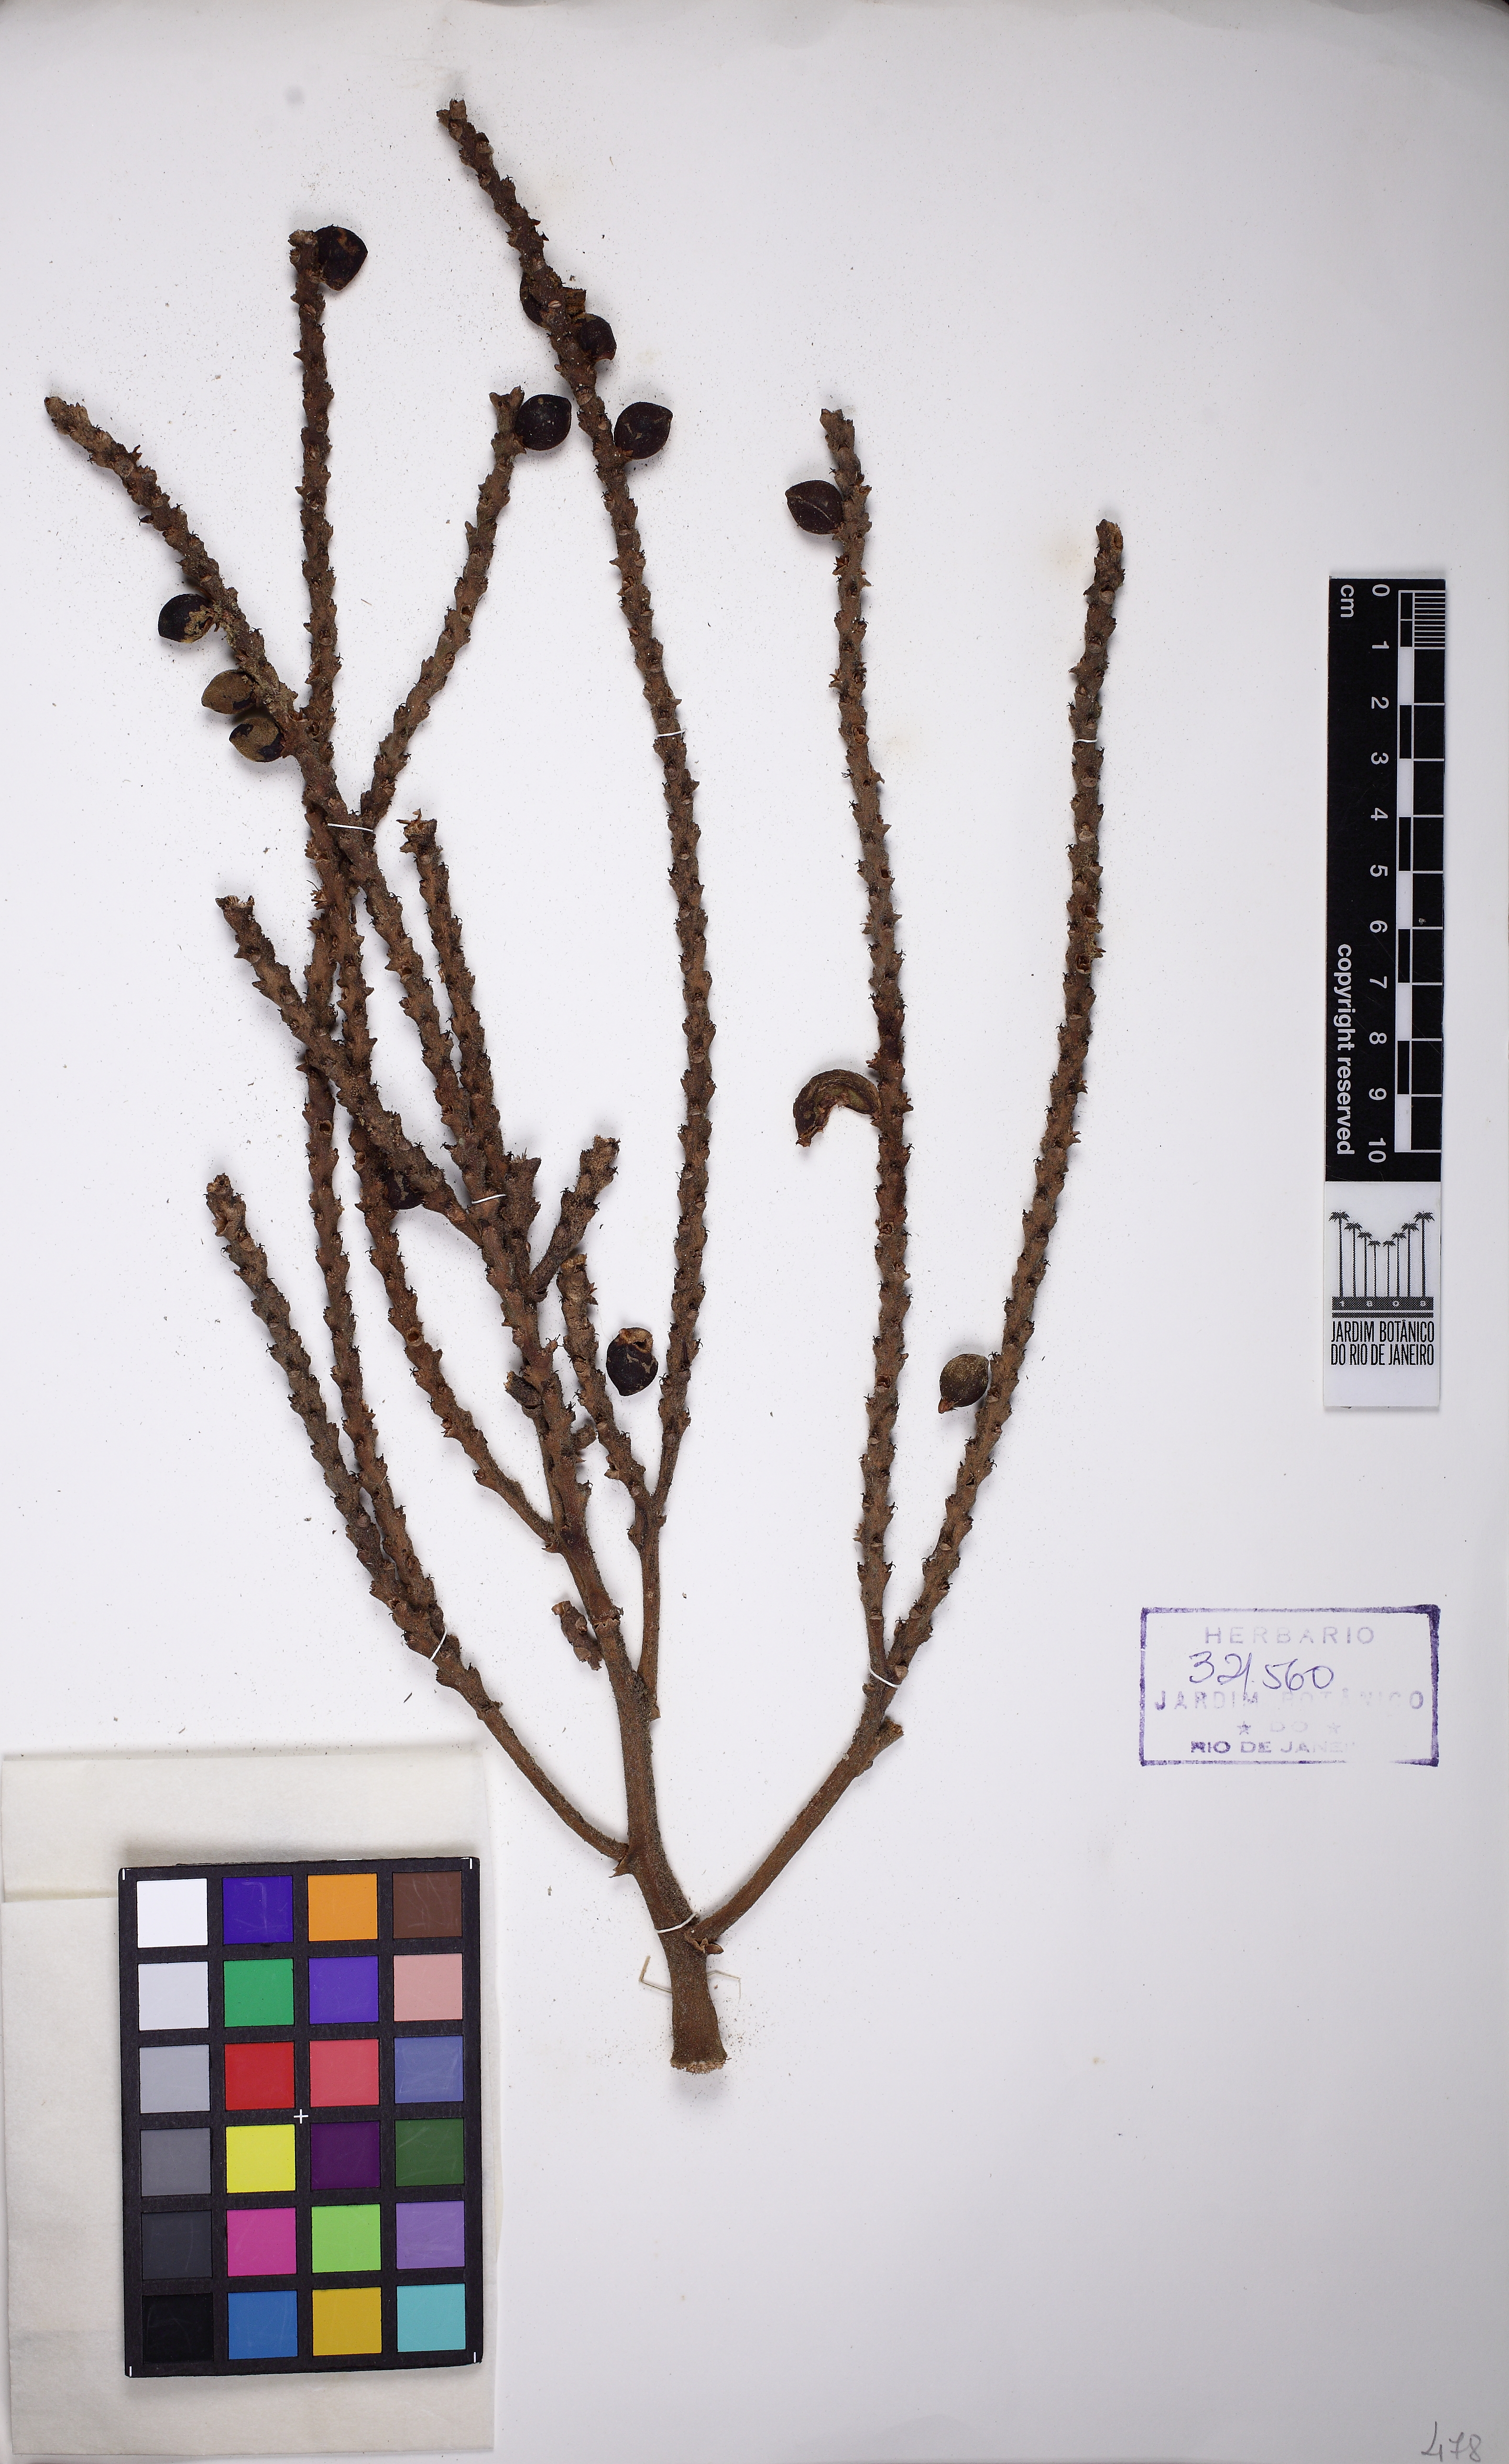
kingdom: Plantae
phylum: Tracheophyta
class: Liliopsida
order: Arecales
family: Arecaceae
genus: Geonoma
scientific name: Geonoma pohliana
